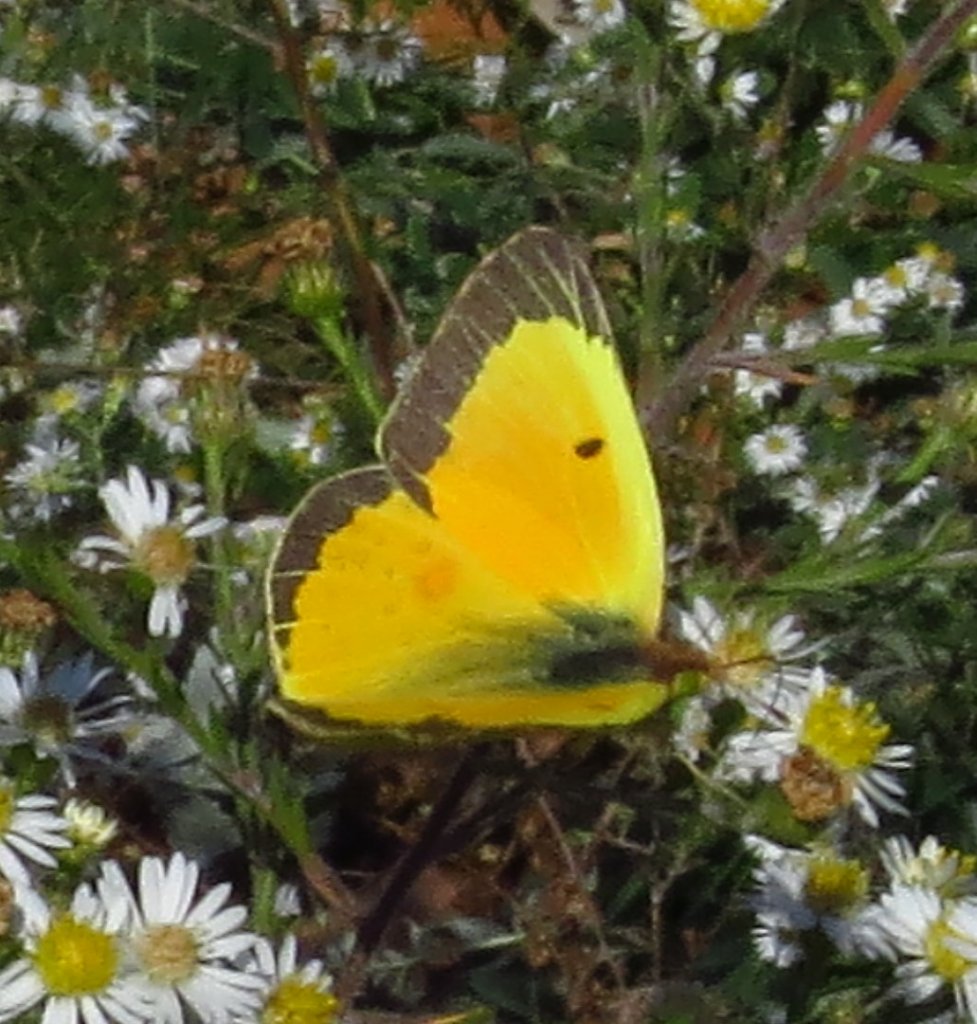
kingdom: Animalia
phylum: Arthropoda
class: Insecta
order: Lepidoptera
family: Pieridae
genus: Colias
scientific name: Colias eurytheme
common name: Orange Sulphur
